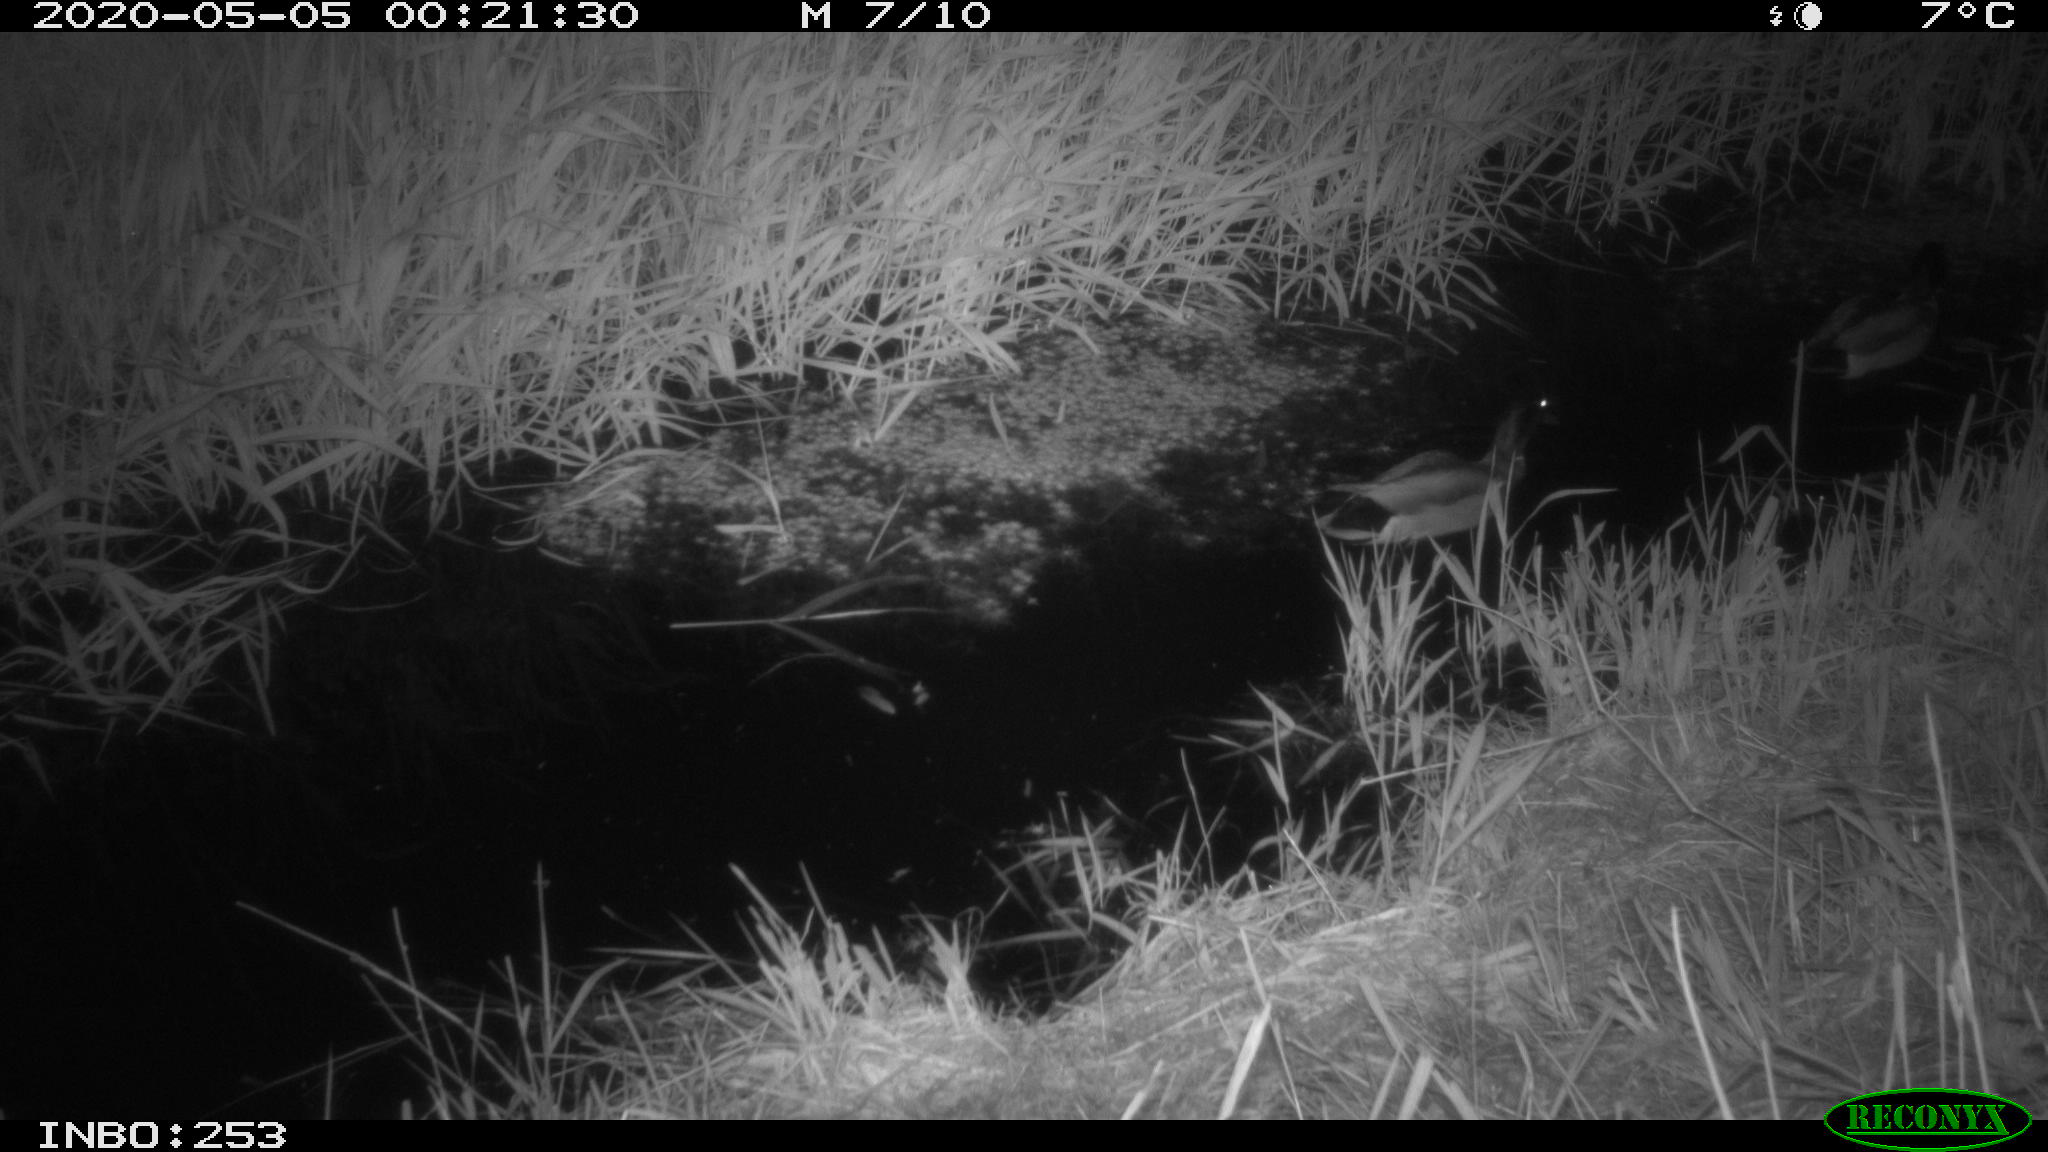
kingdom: Animalia
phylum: Chordata
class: Aves
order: Anseriformes
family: Anatidae
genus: Anas
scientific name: Anas platyrhynchos
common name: Mallard
